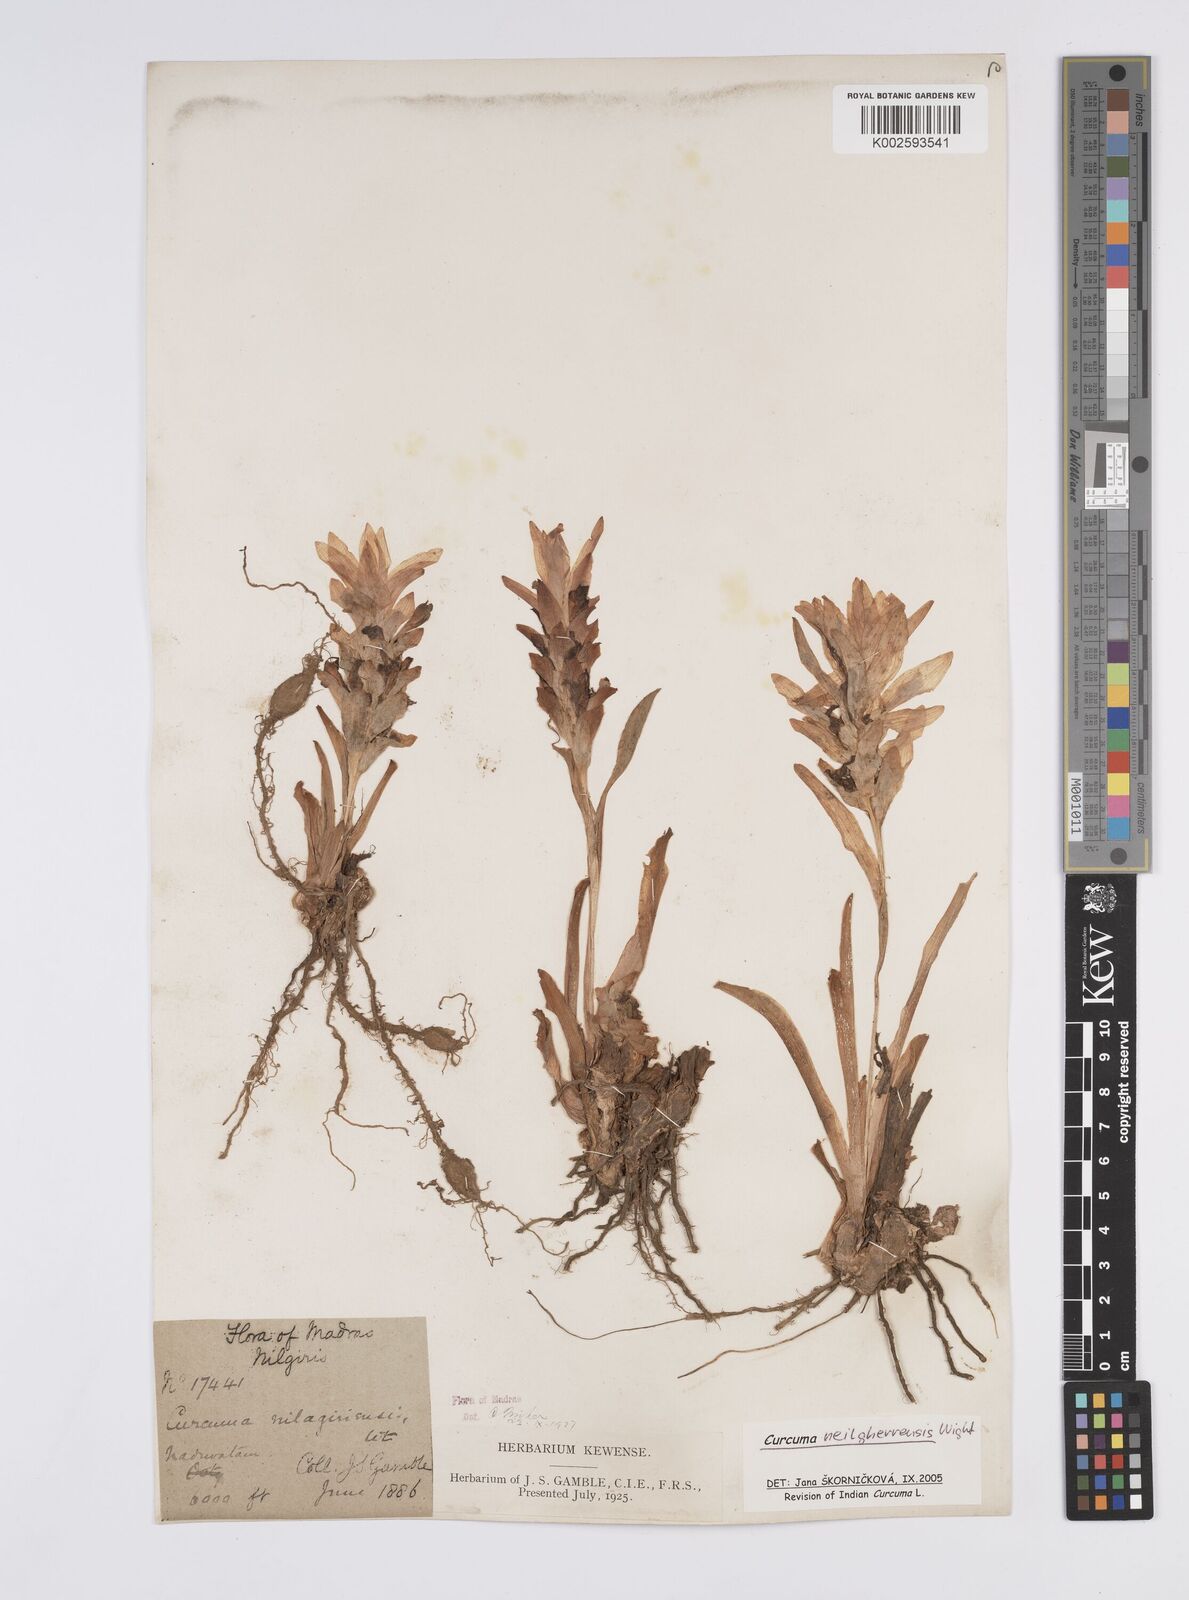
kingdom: Plantae
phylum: Tracheophyta
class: Liliopsida
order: Zingiberales
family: Zingiberaceae
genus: Curcuma
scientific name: Curcuma neilgherrensis
